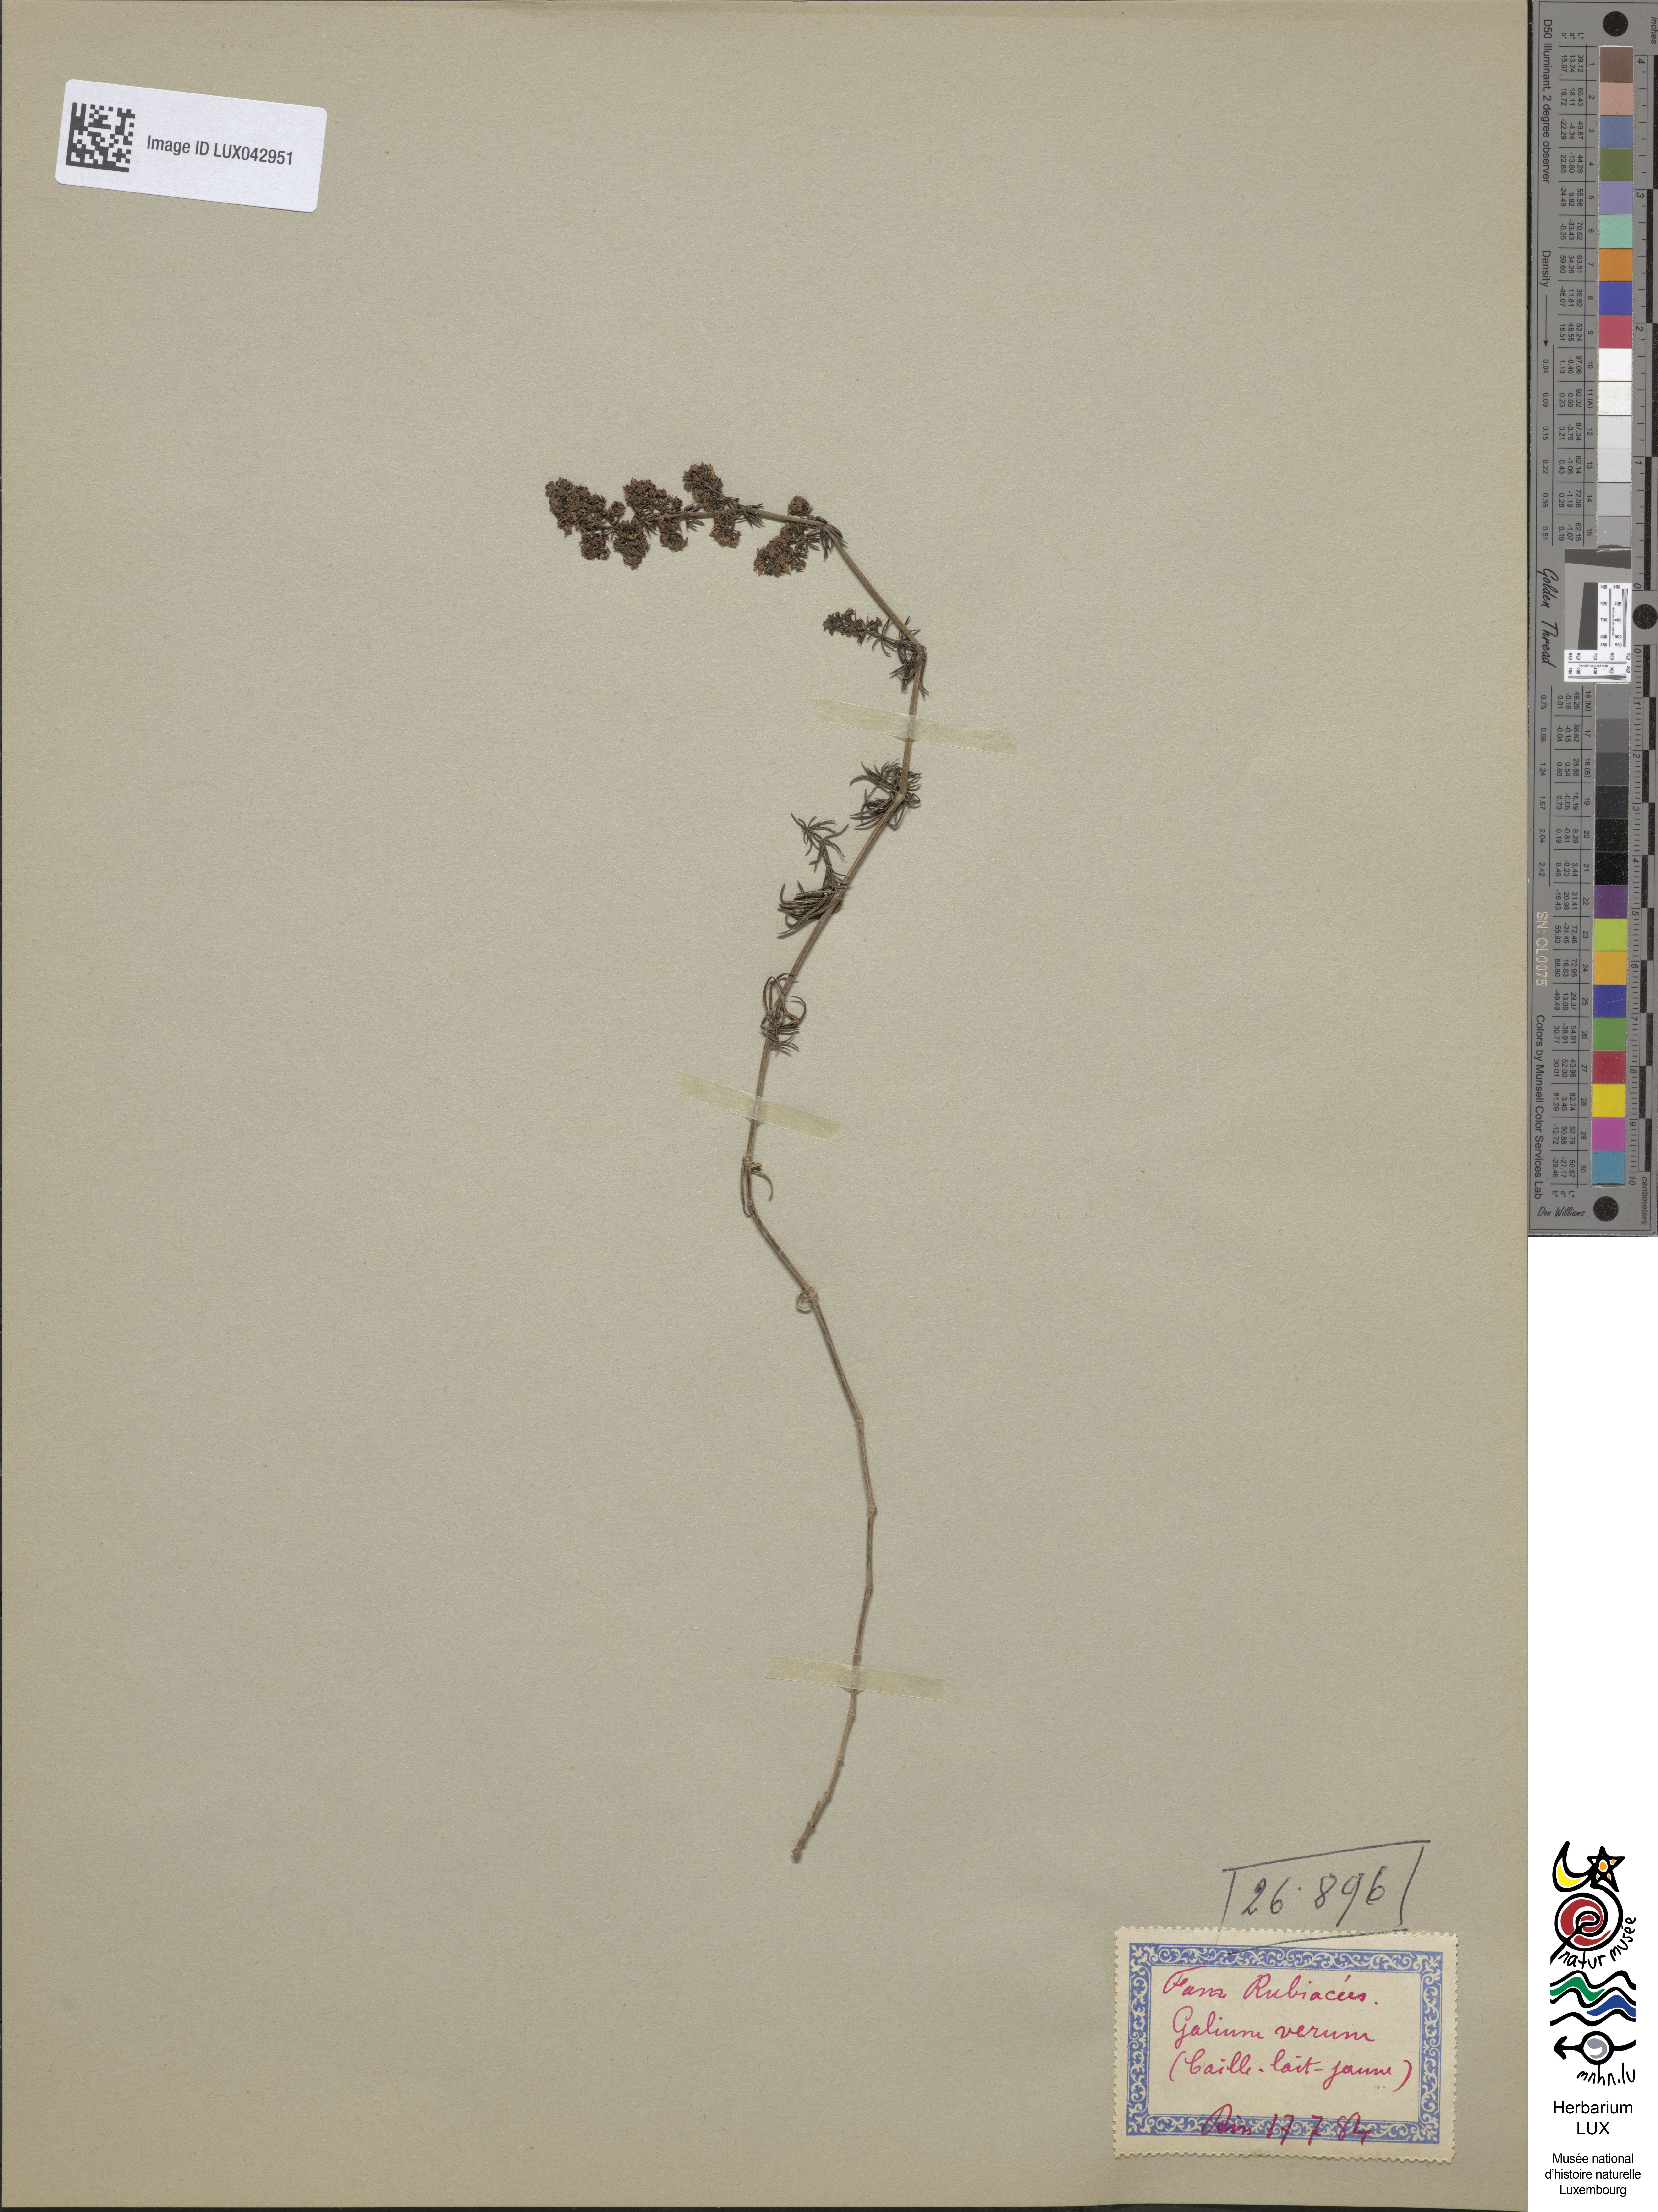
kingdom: Plantae
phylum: Tracheophyta
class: Magnoliopsida
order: Gentianales
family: Rubiaceae
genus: Galium
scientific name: Galium verum
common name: Lady's bedstraw
